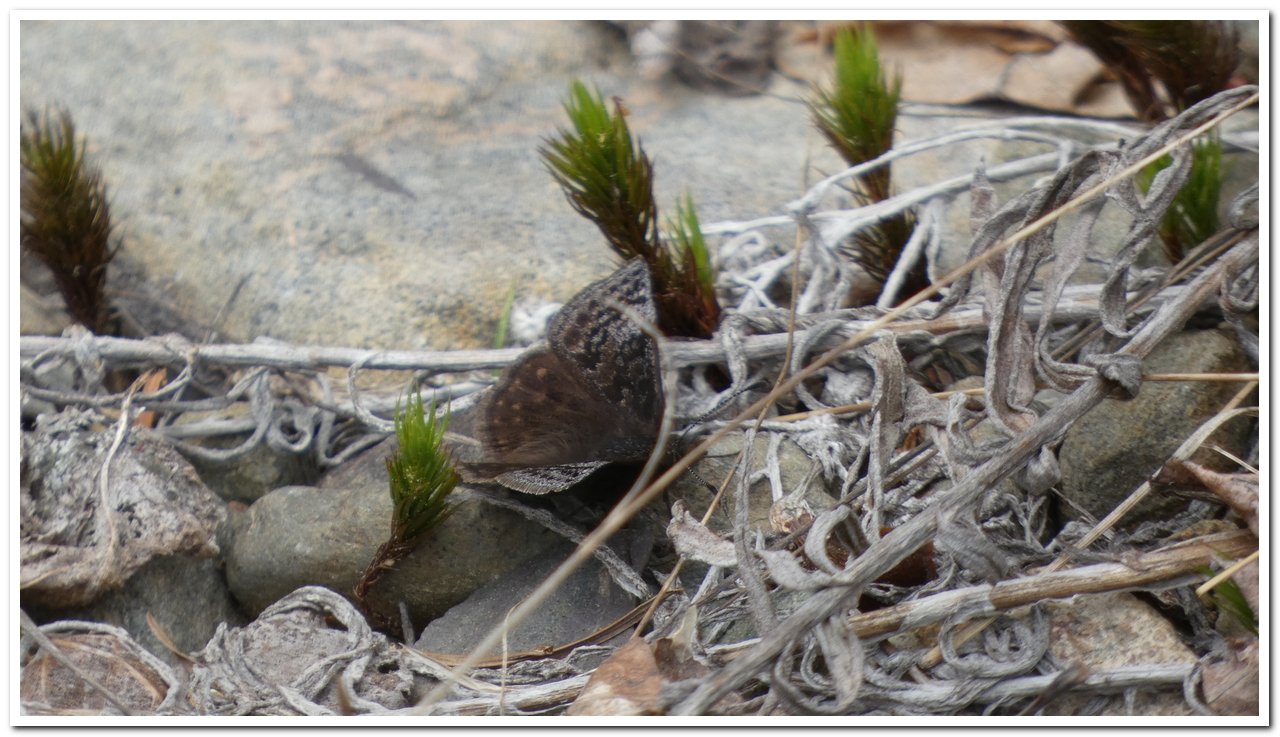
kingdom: Animalia
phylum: Arthropoda
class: Insecta
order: Lepidoptera
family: Hesperiidae
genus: Erynnis
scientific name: Erynnis icelus
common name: Dreamy Duskywing
